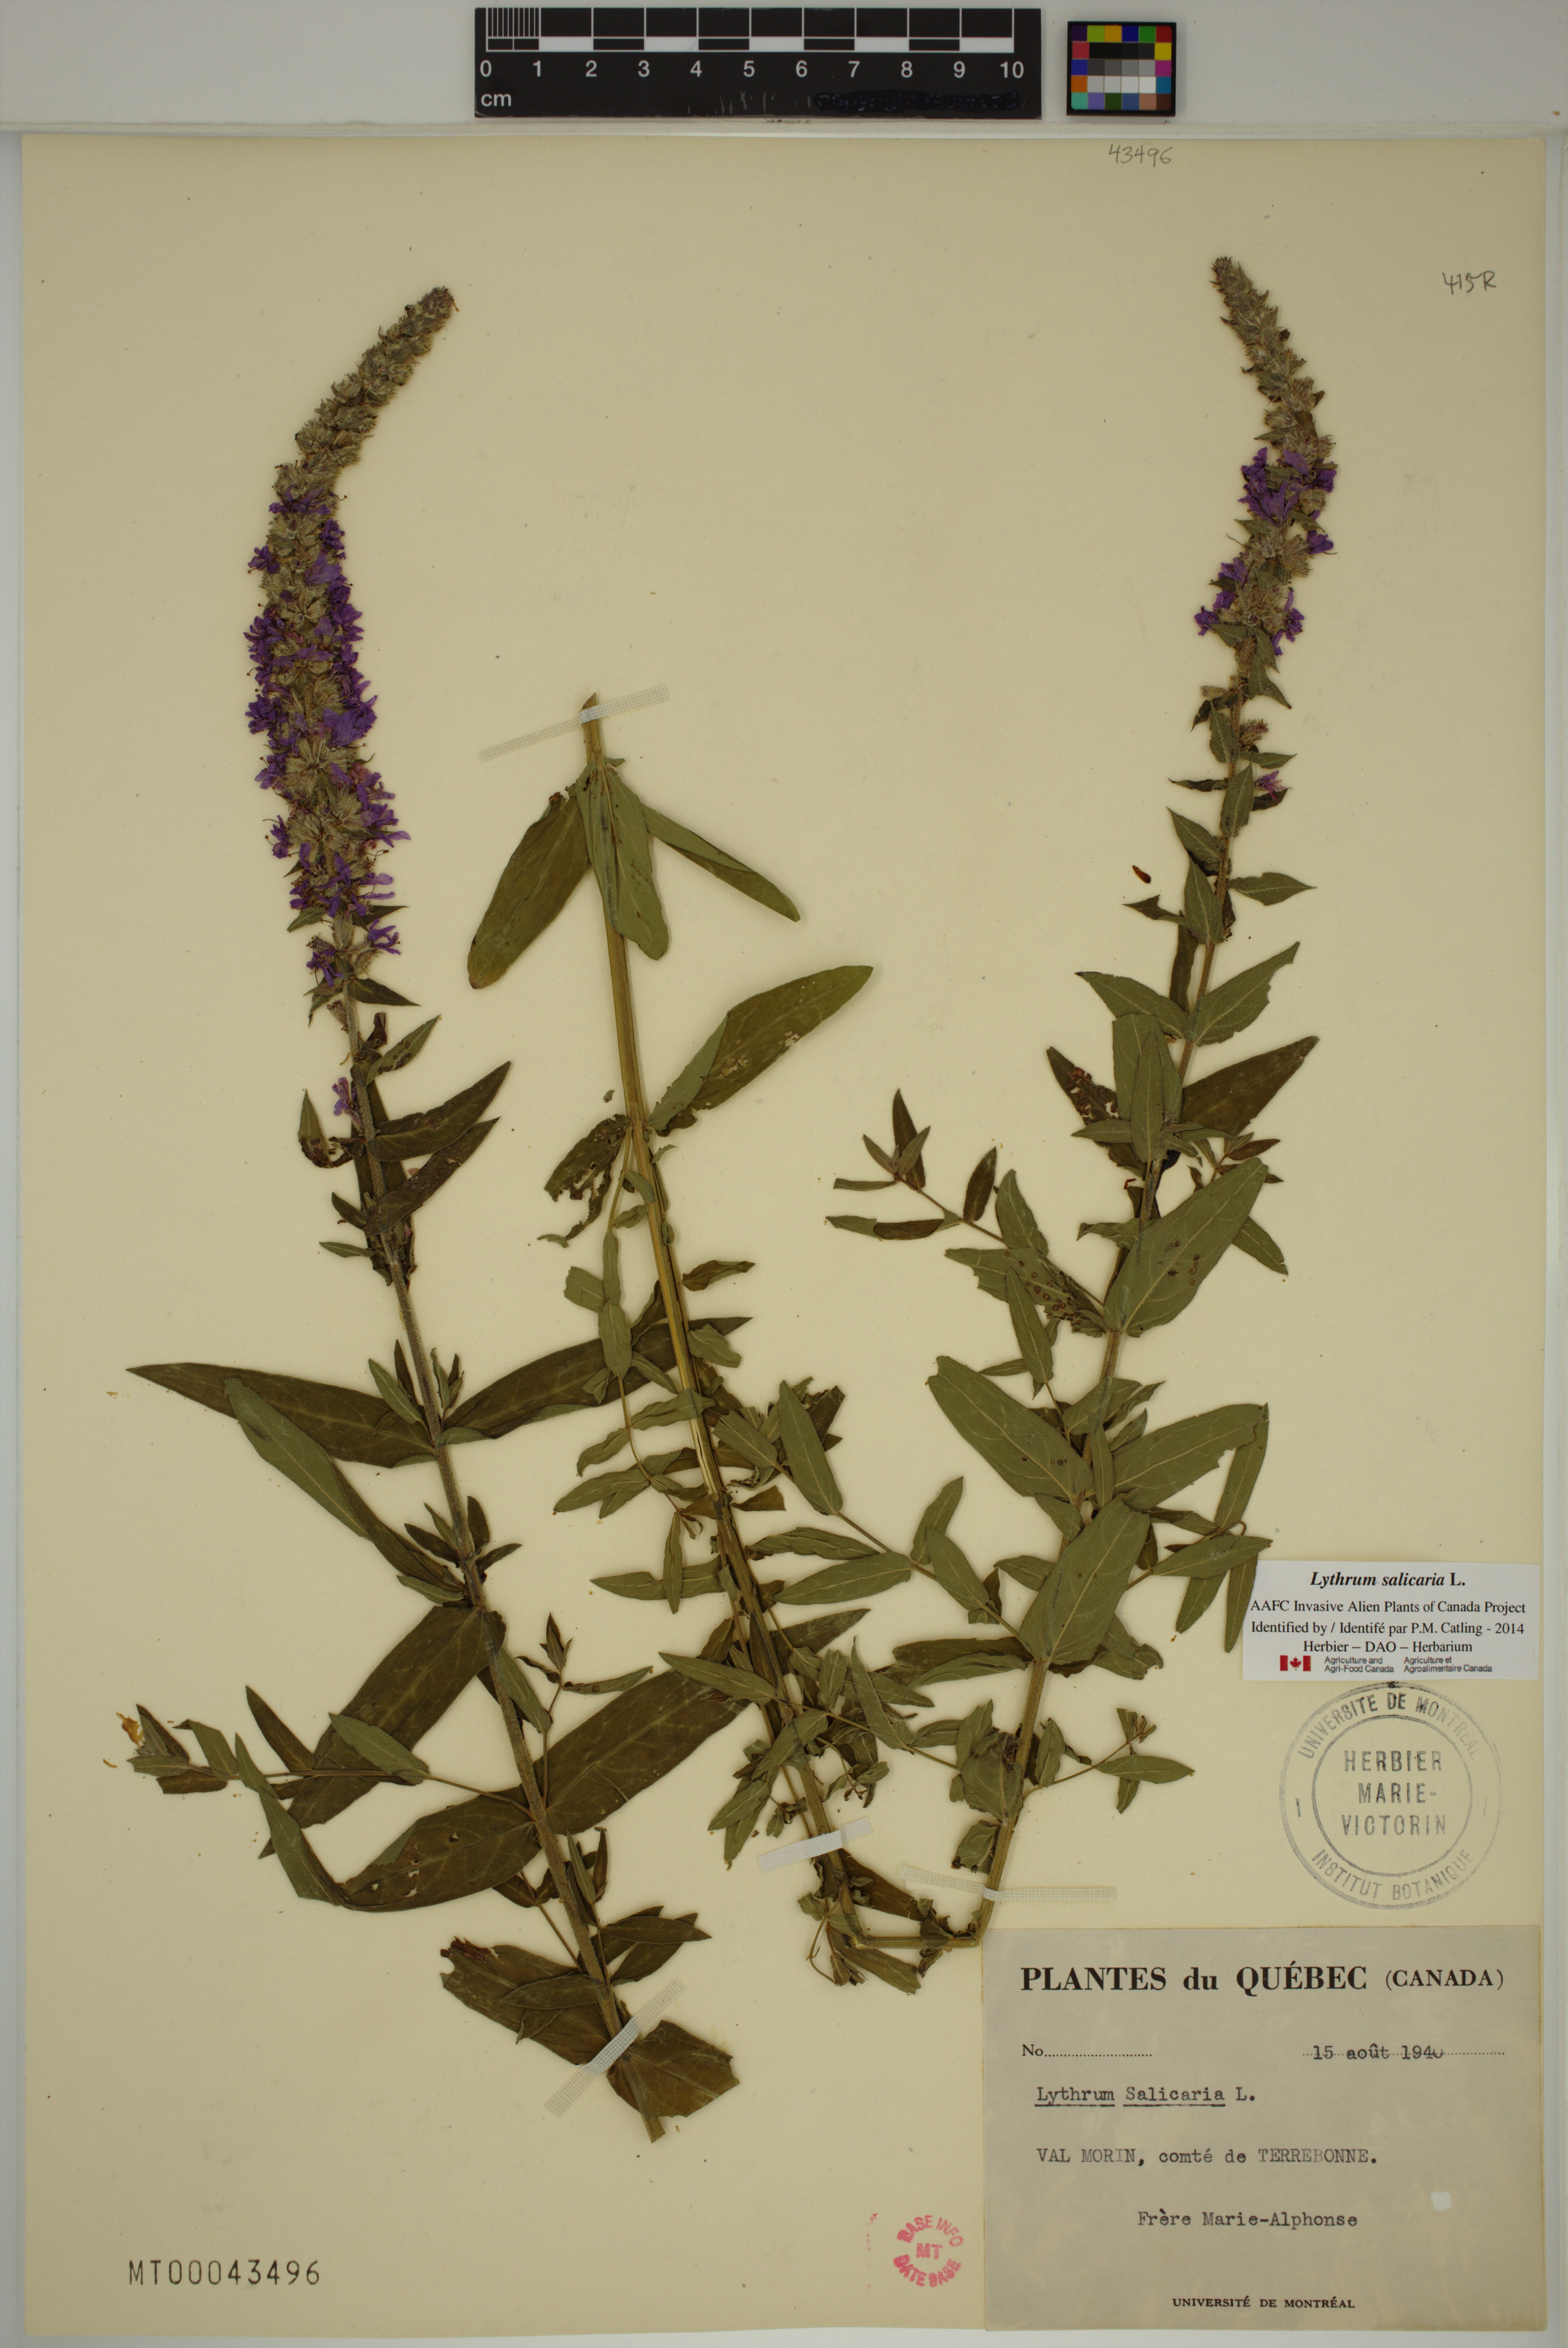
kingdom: Plantae
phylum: Tracheophyta
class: Magnoliopsida
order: Myrtales
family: Lythraceae
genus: Lythrum
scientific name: Lythrum salicaria
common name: Purple loosestrife
